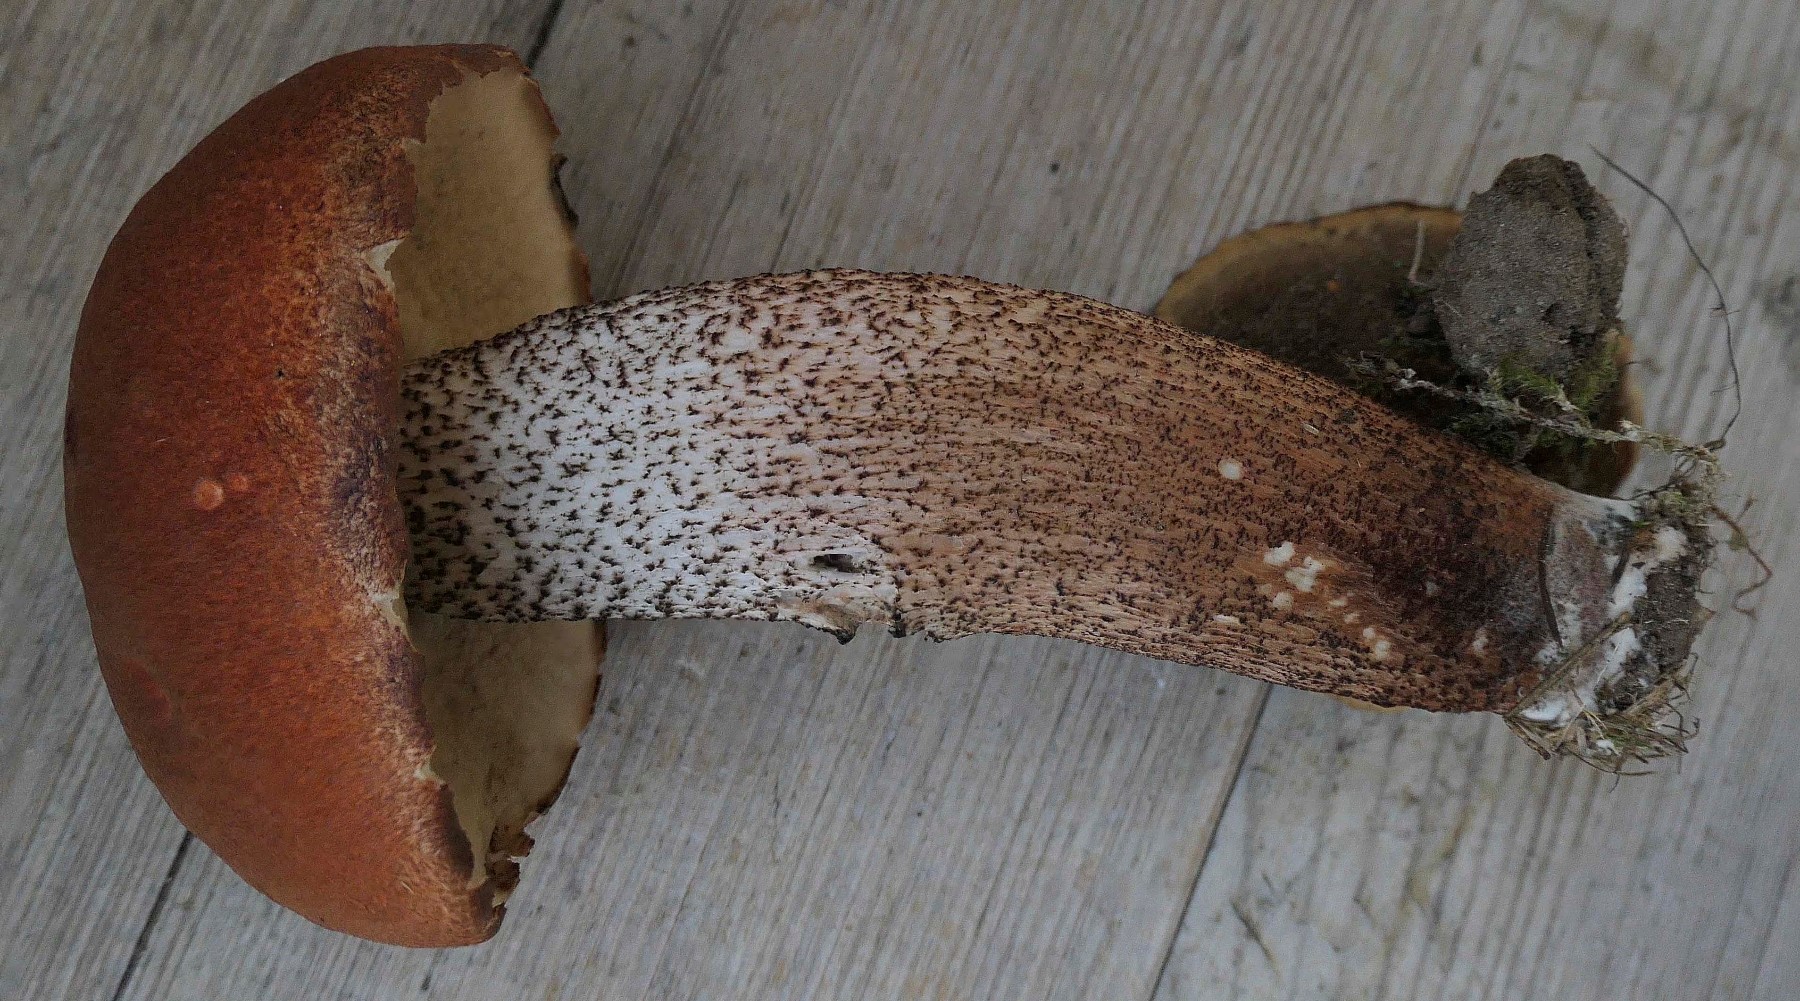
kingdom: Fungi
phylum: Basidiomycota
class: Agaricomycetes
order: Boletales
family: Boletaceae
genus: Leccinum
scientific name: Leccinum aurantiacum
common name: rustrød skælrørhat
